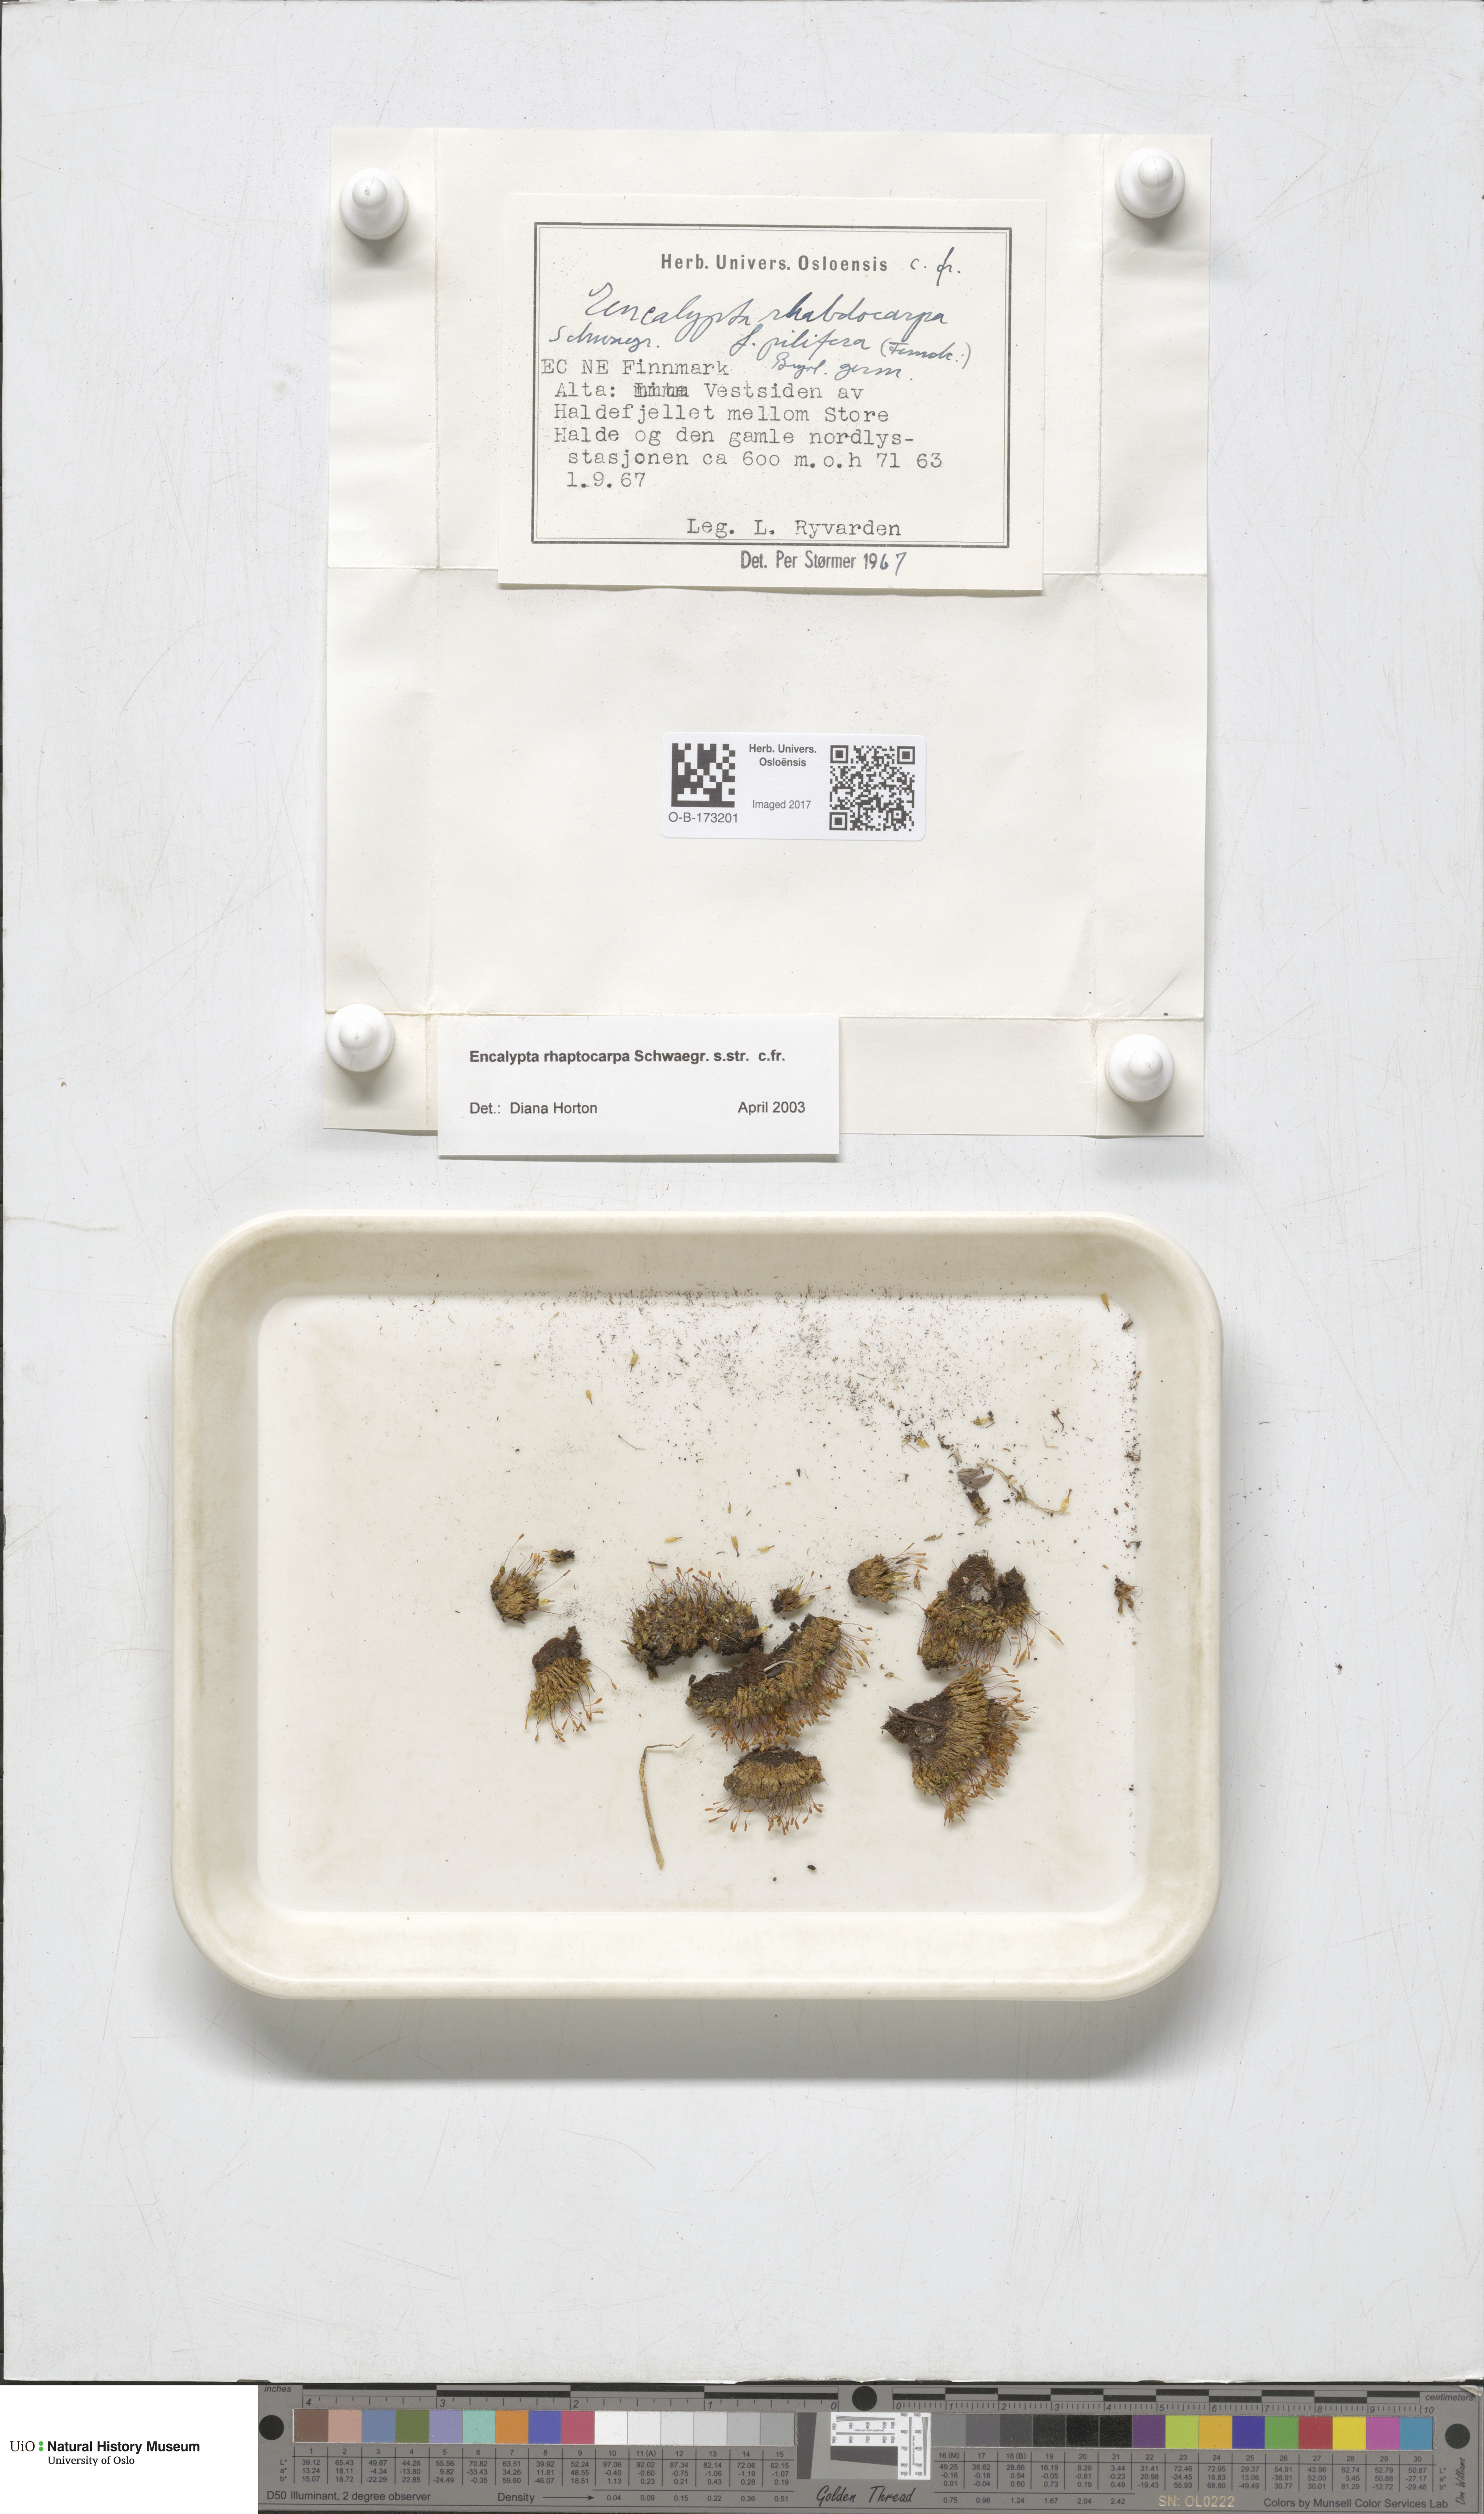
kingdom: Plantae
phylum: Bryophyta
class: Bryopsida
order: Encalyptales
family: Encalyptaceae
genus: Encalypta
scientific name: Encalypta rhaptocarpa
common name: Ribbed extinguisher moss
